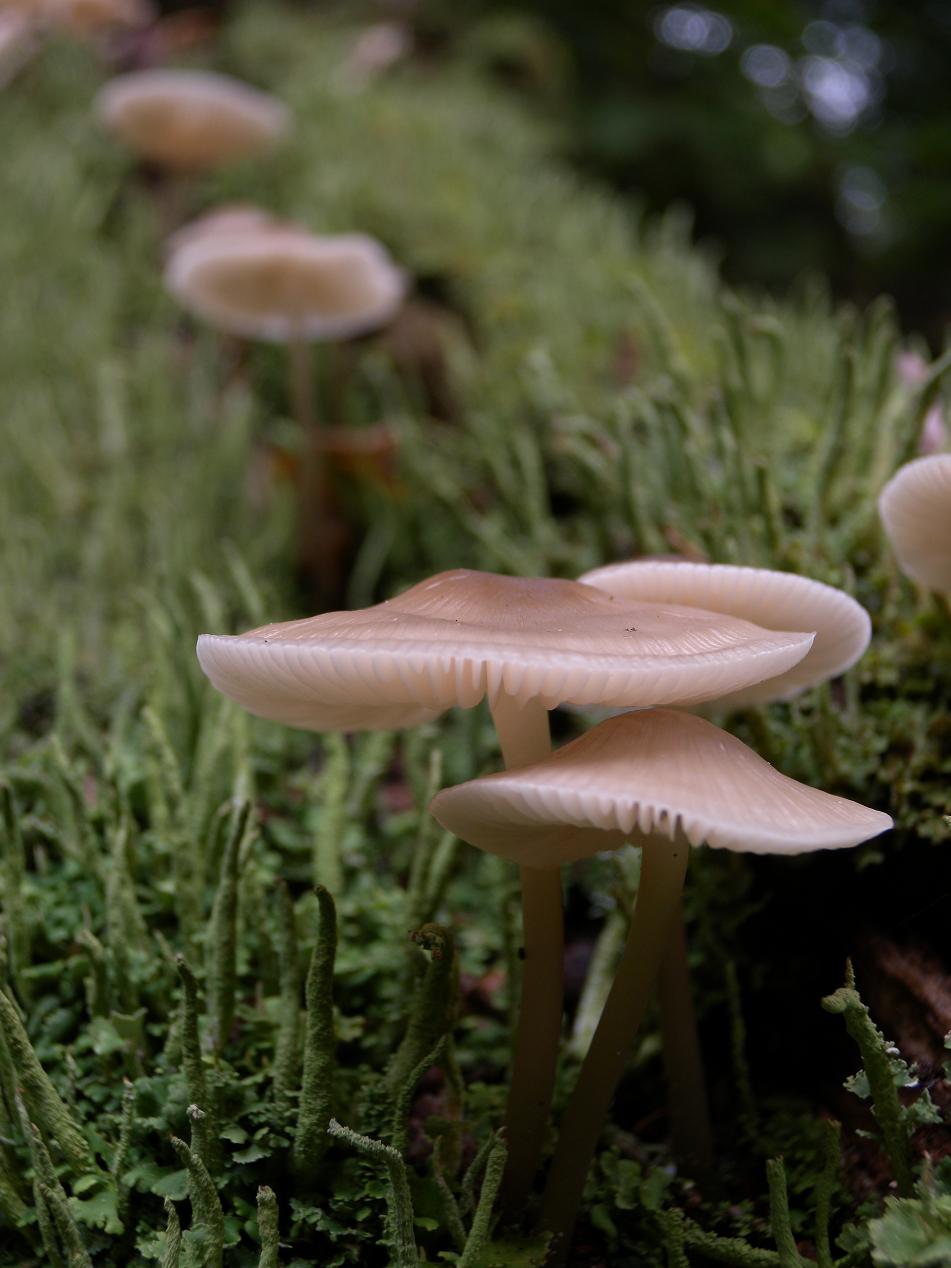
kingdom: Fungi
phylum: Basidiomycota
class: Agaricomycetes
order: Agaricales
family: Mycenaceae
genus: Mycena
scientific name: Mycena galericulata
